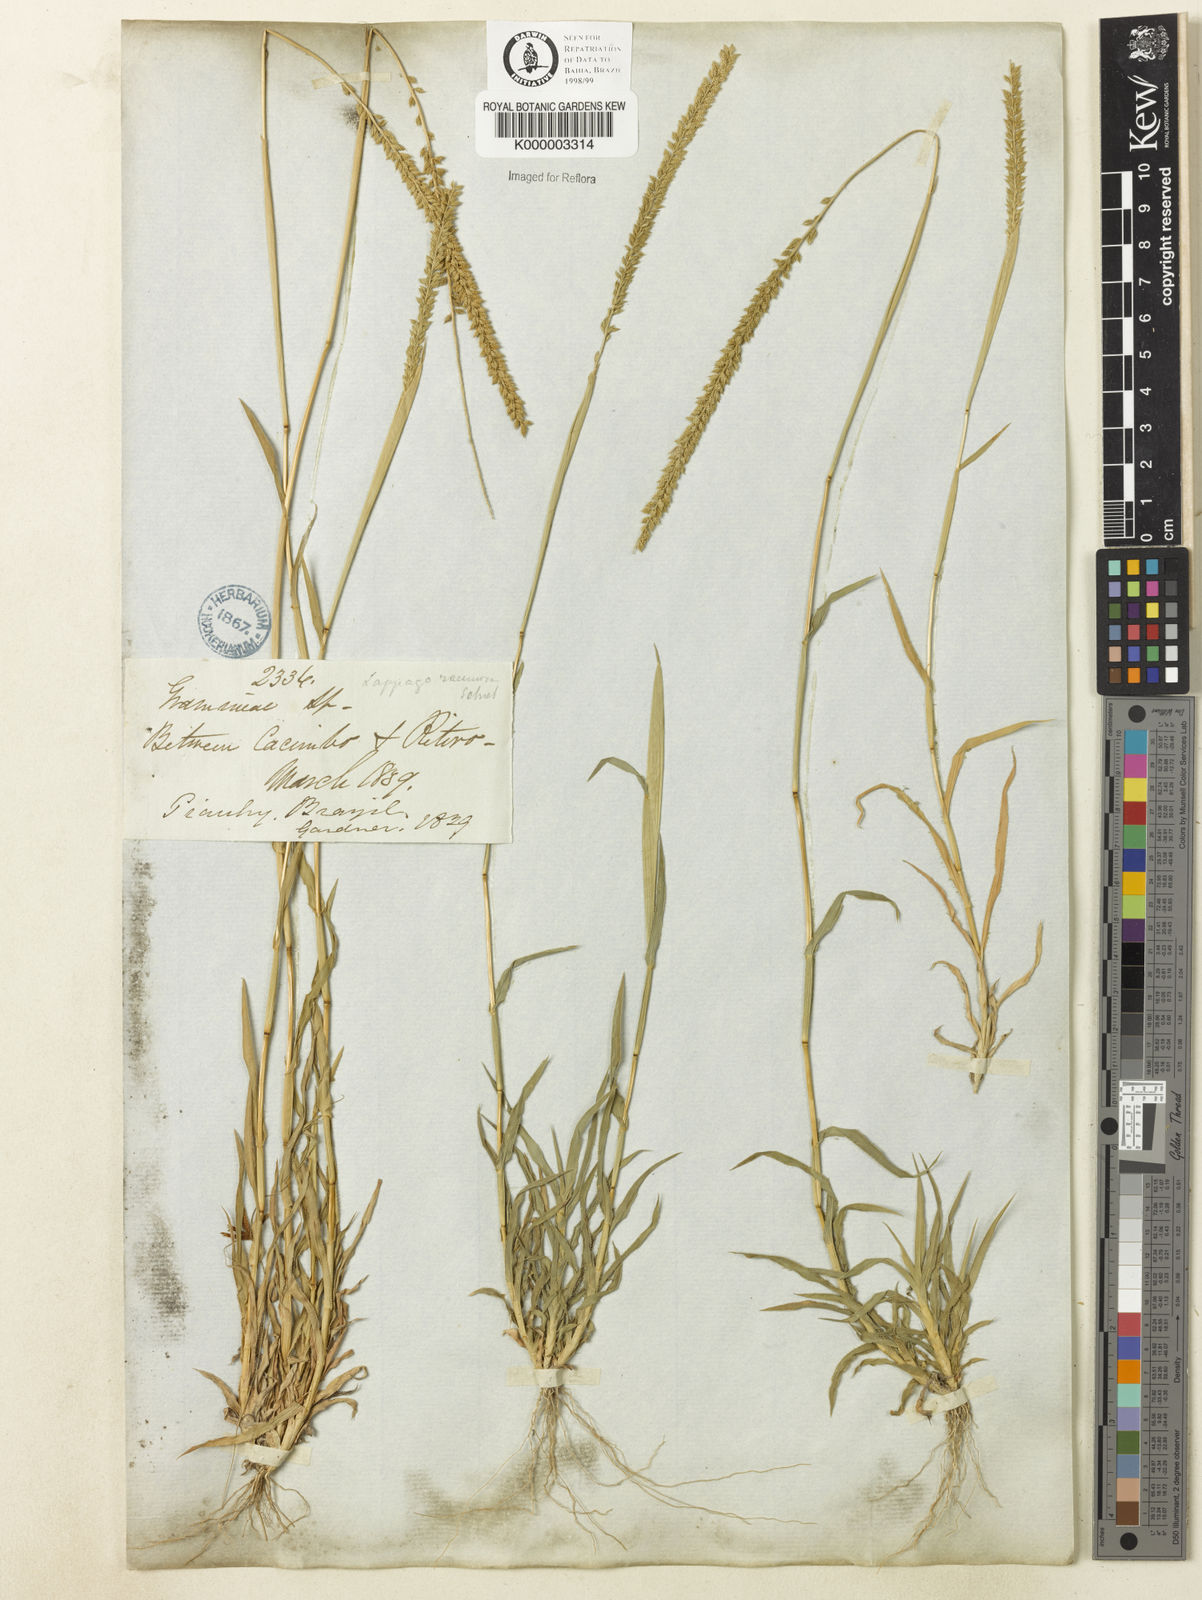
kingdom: Plantae
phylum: Tracheophyta
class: Liliopsida
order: Poales
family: Poaceae
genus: Tragus
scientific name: Tragus berteronianus
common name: African bur-grass
